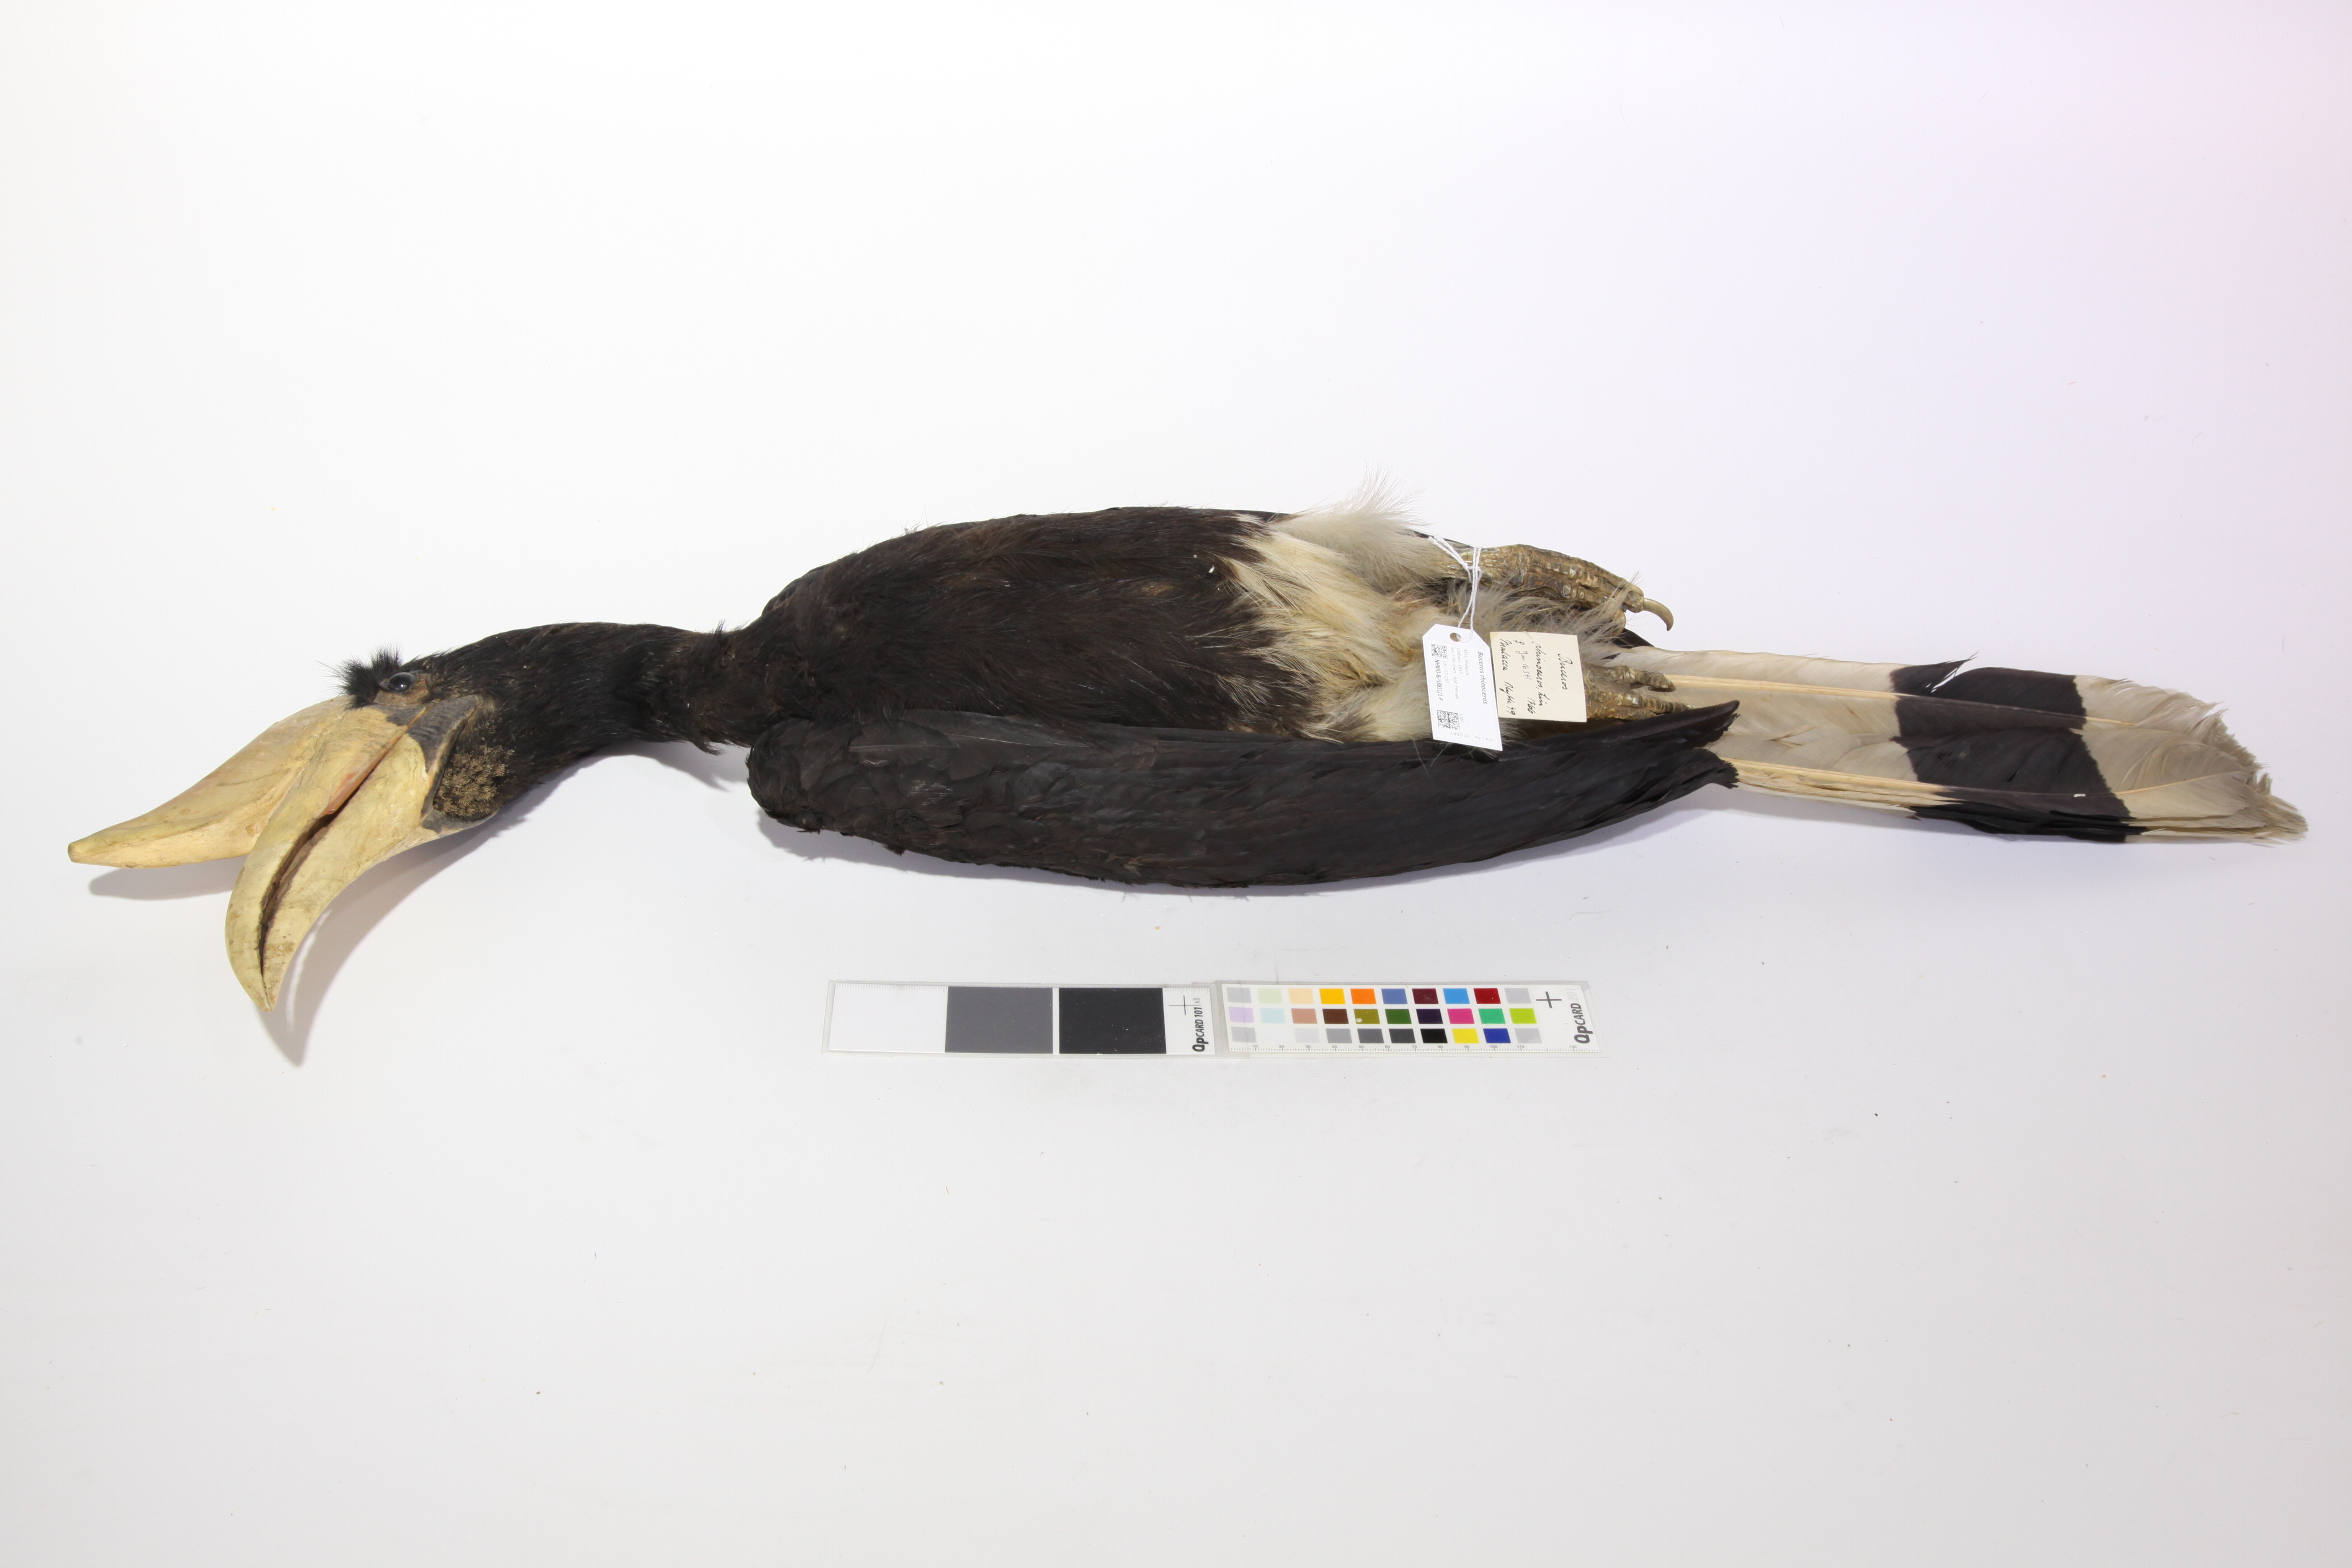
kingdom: Animalia
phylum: Chordata
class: Aves
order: Bucerotiformes
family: Bucerotidae
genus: Buceros
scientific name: Buceros rhinoceros
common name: Rhinoceros hornbill
